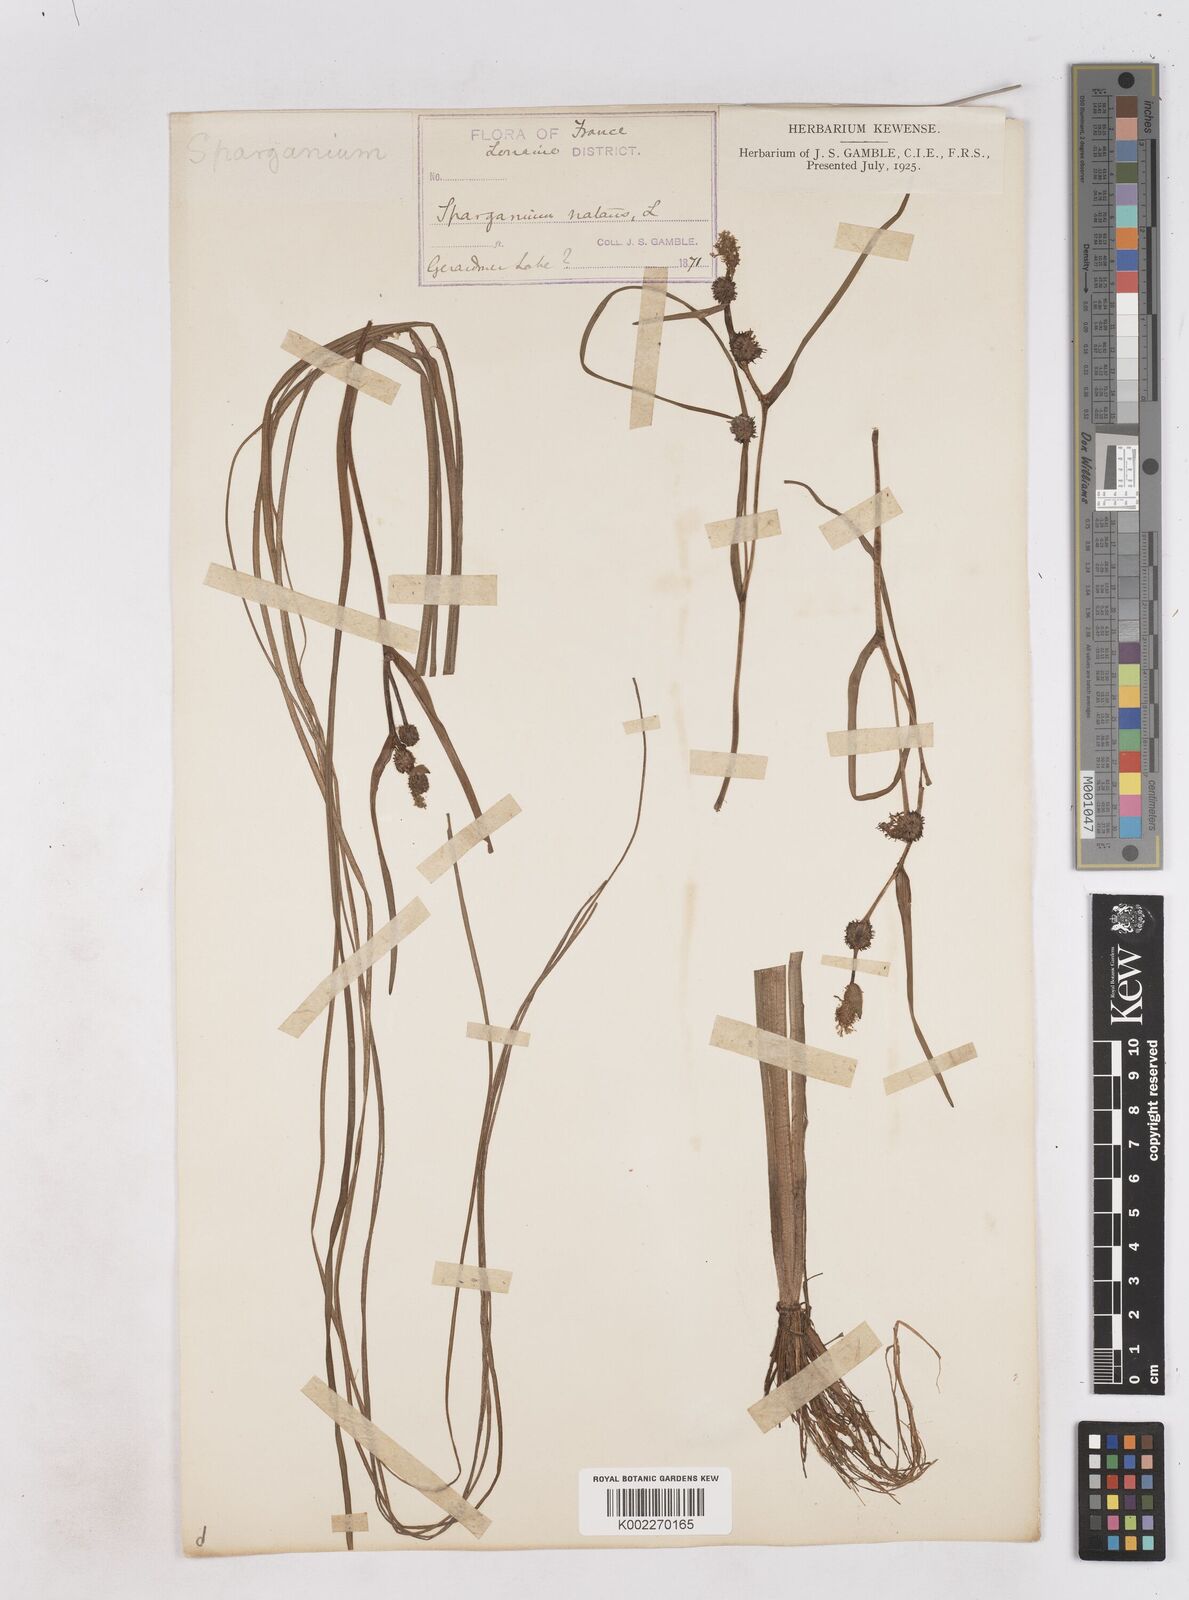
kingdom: Plantae
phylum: Tracheophyta
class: Liliopsida
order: Poales
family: Typhaceae
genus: Sparganium
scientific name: Sparganium natans
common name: Least bur-reed
